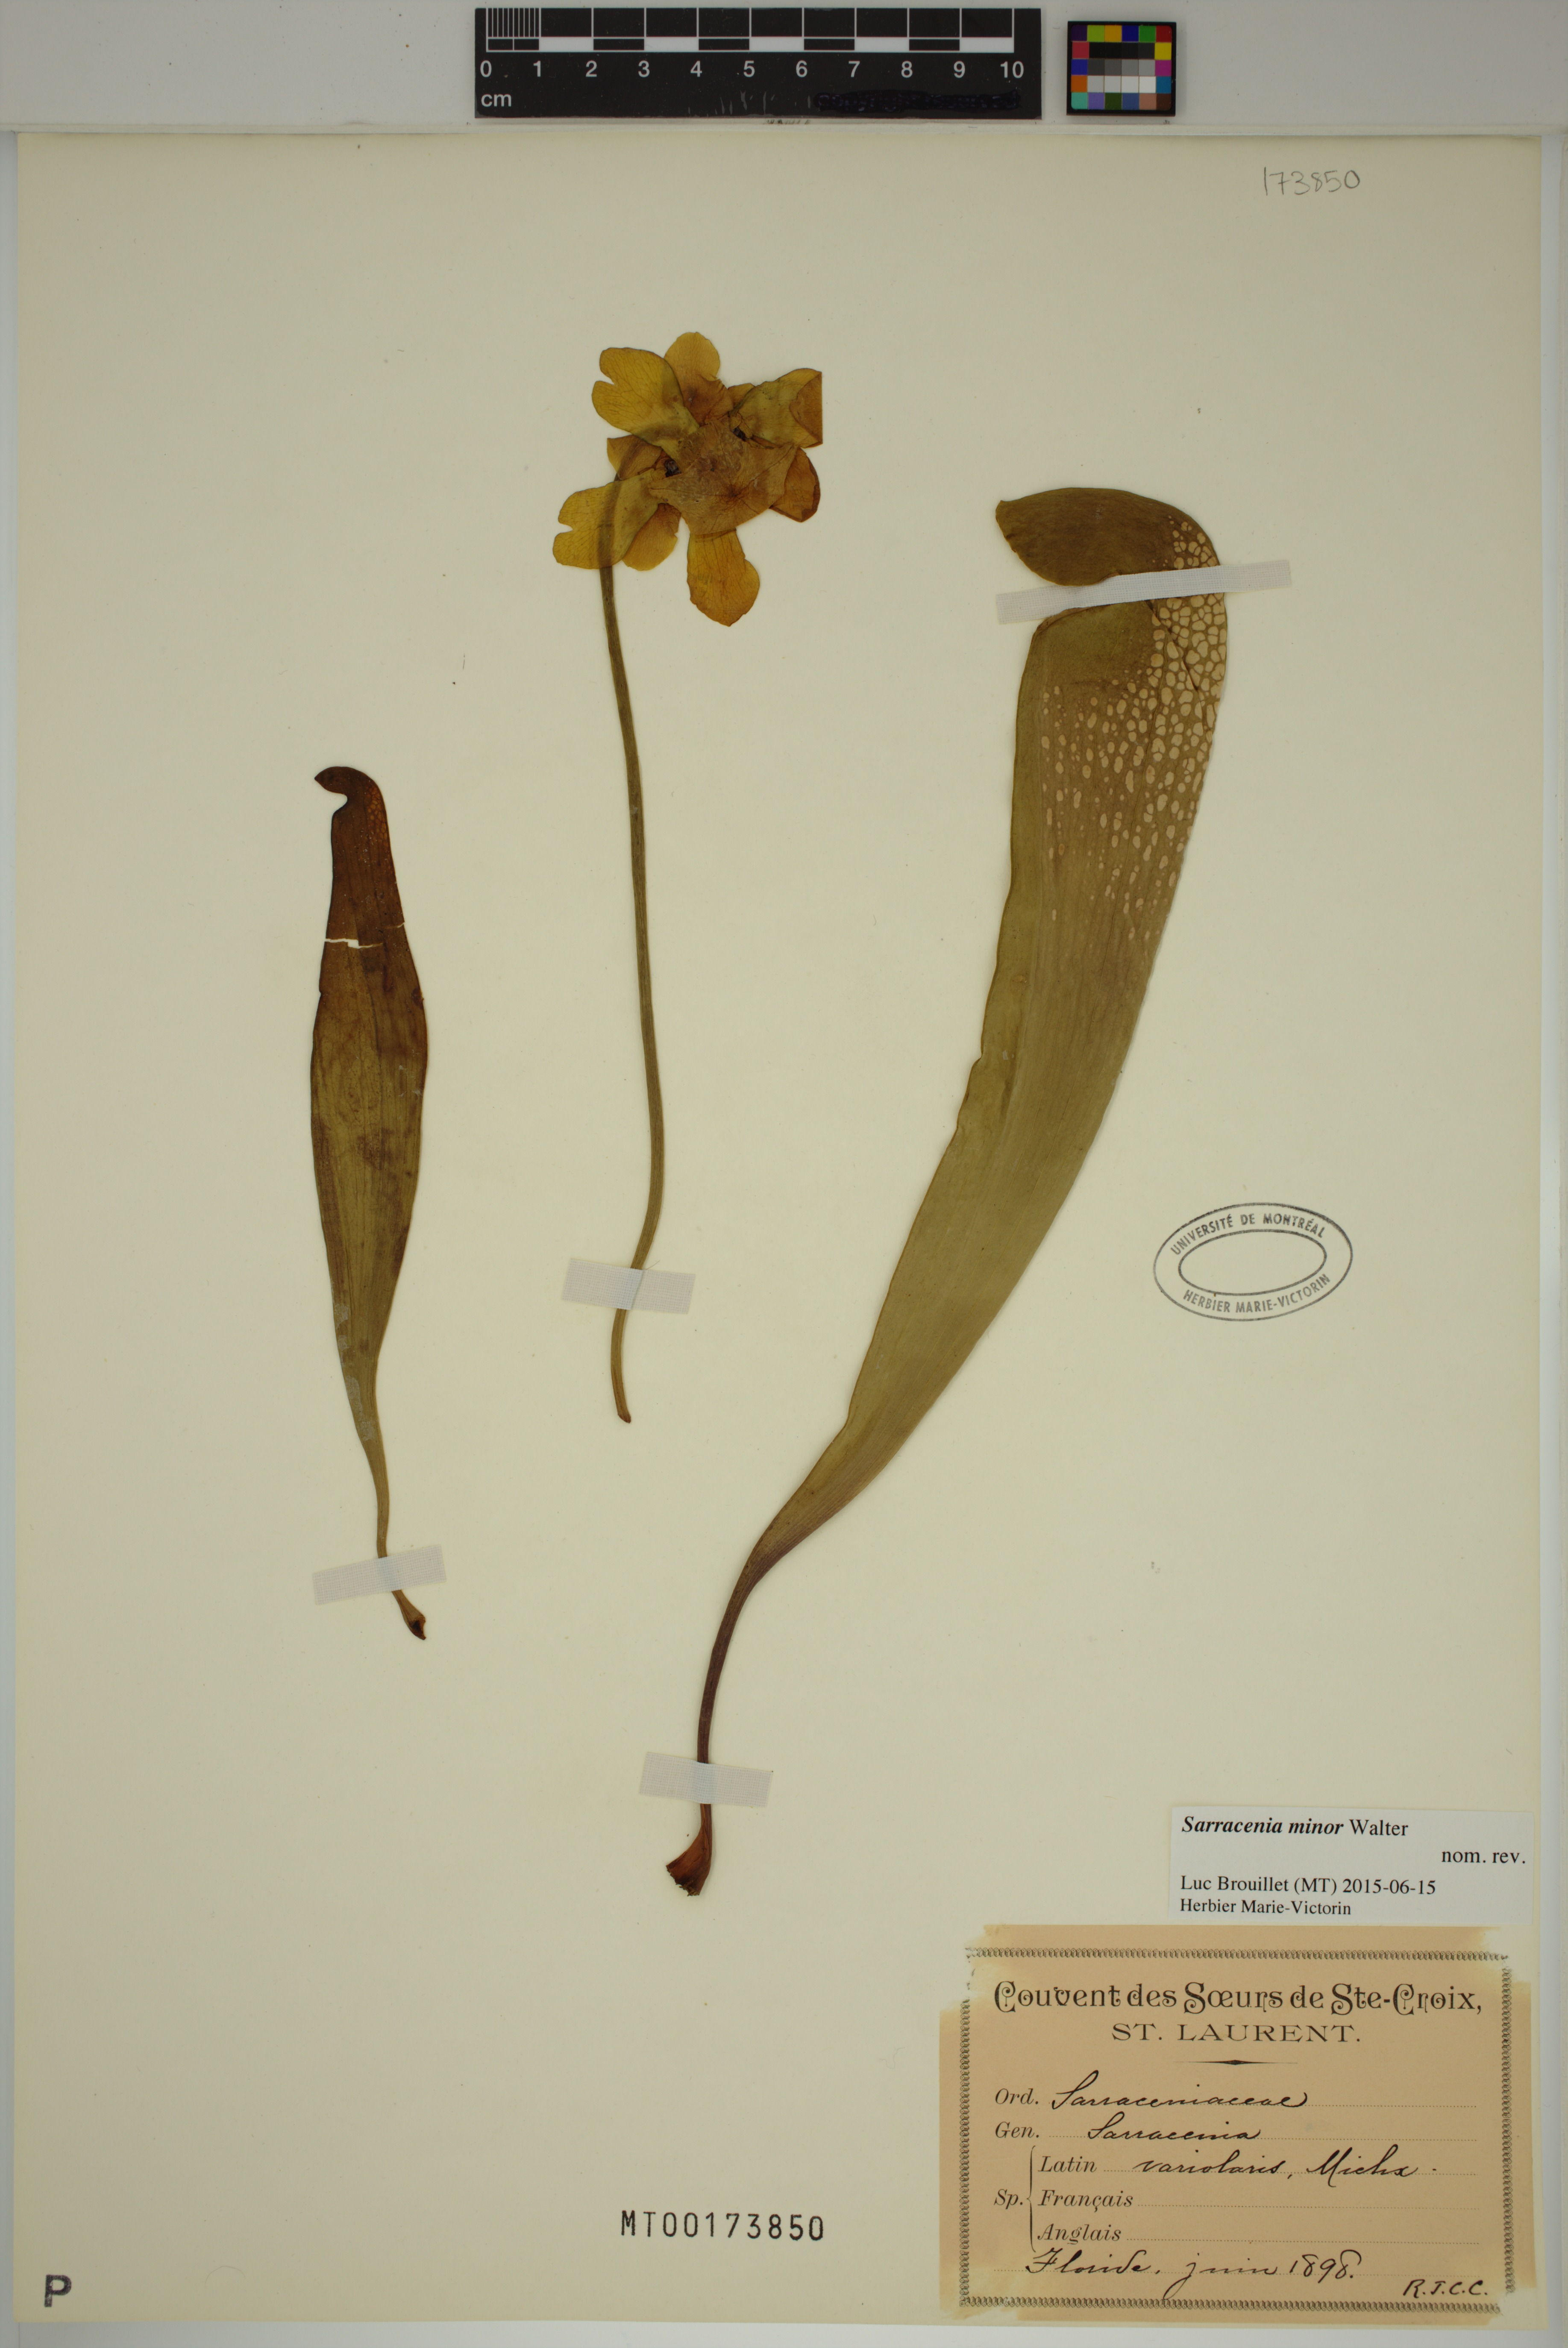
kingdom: Plantae
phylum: Tracheophyta
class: Magnoliopsida
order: Ericales
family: Sarraceniaceae
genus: Sarracenia
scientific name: Sarracenia minor
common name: Rainhat-trumpet
